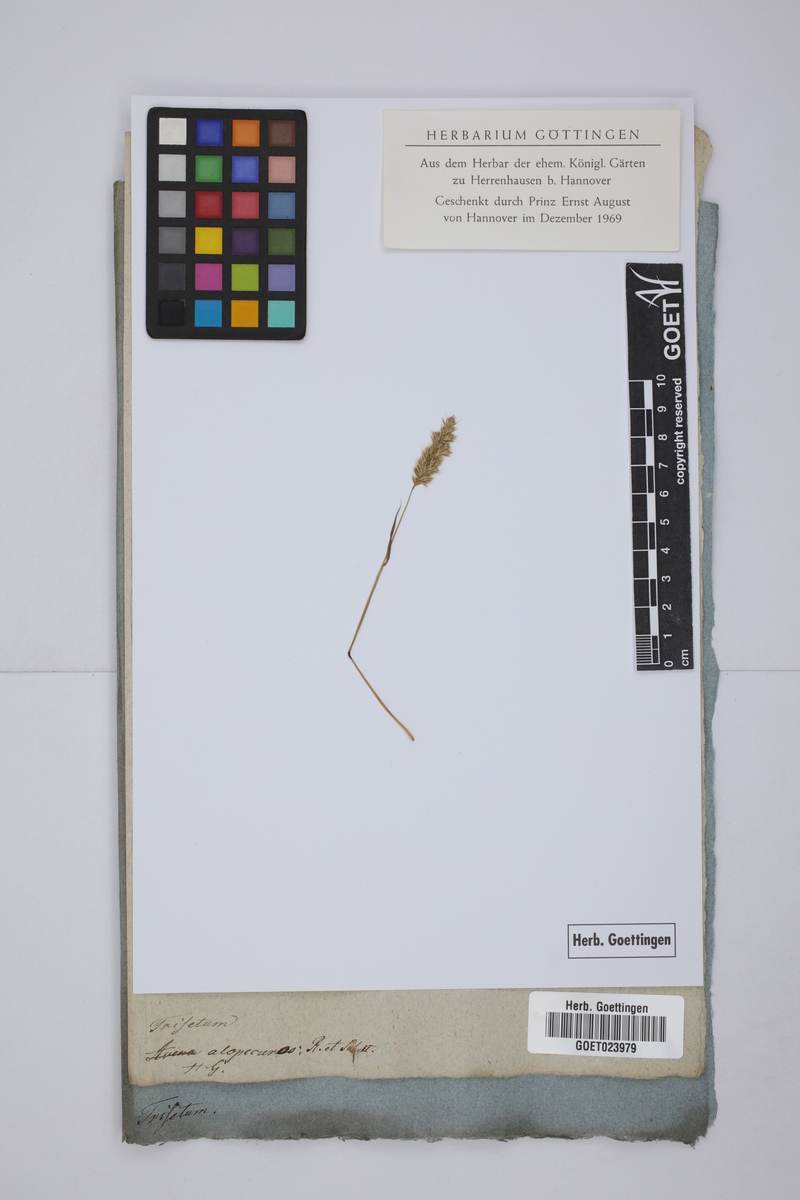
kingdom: Plantae
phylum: Tracheophyta
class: Liliopsida
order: Poales
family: Poaceae
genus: Avenula
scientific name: Avenula pubescens
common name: Downy alpine oatgrass
